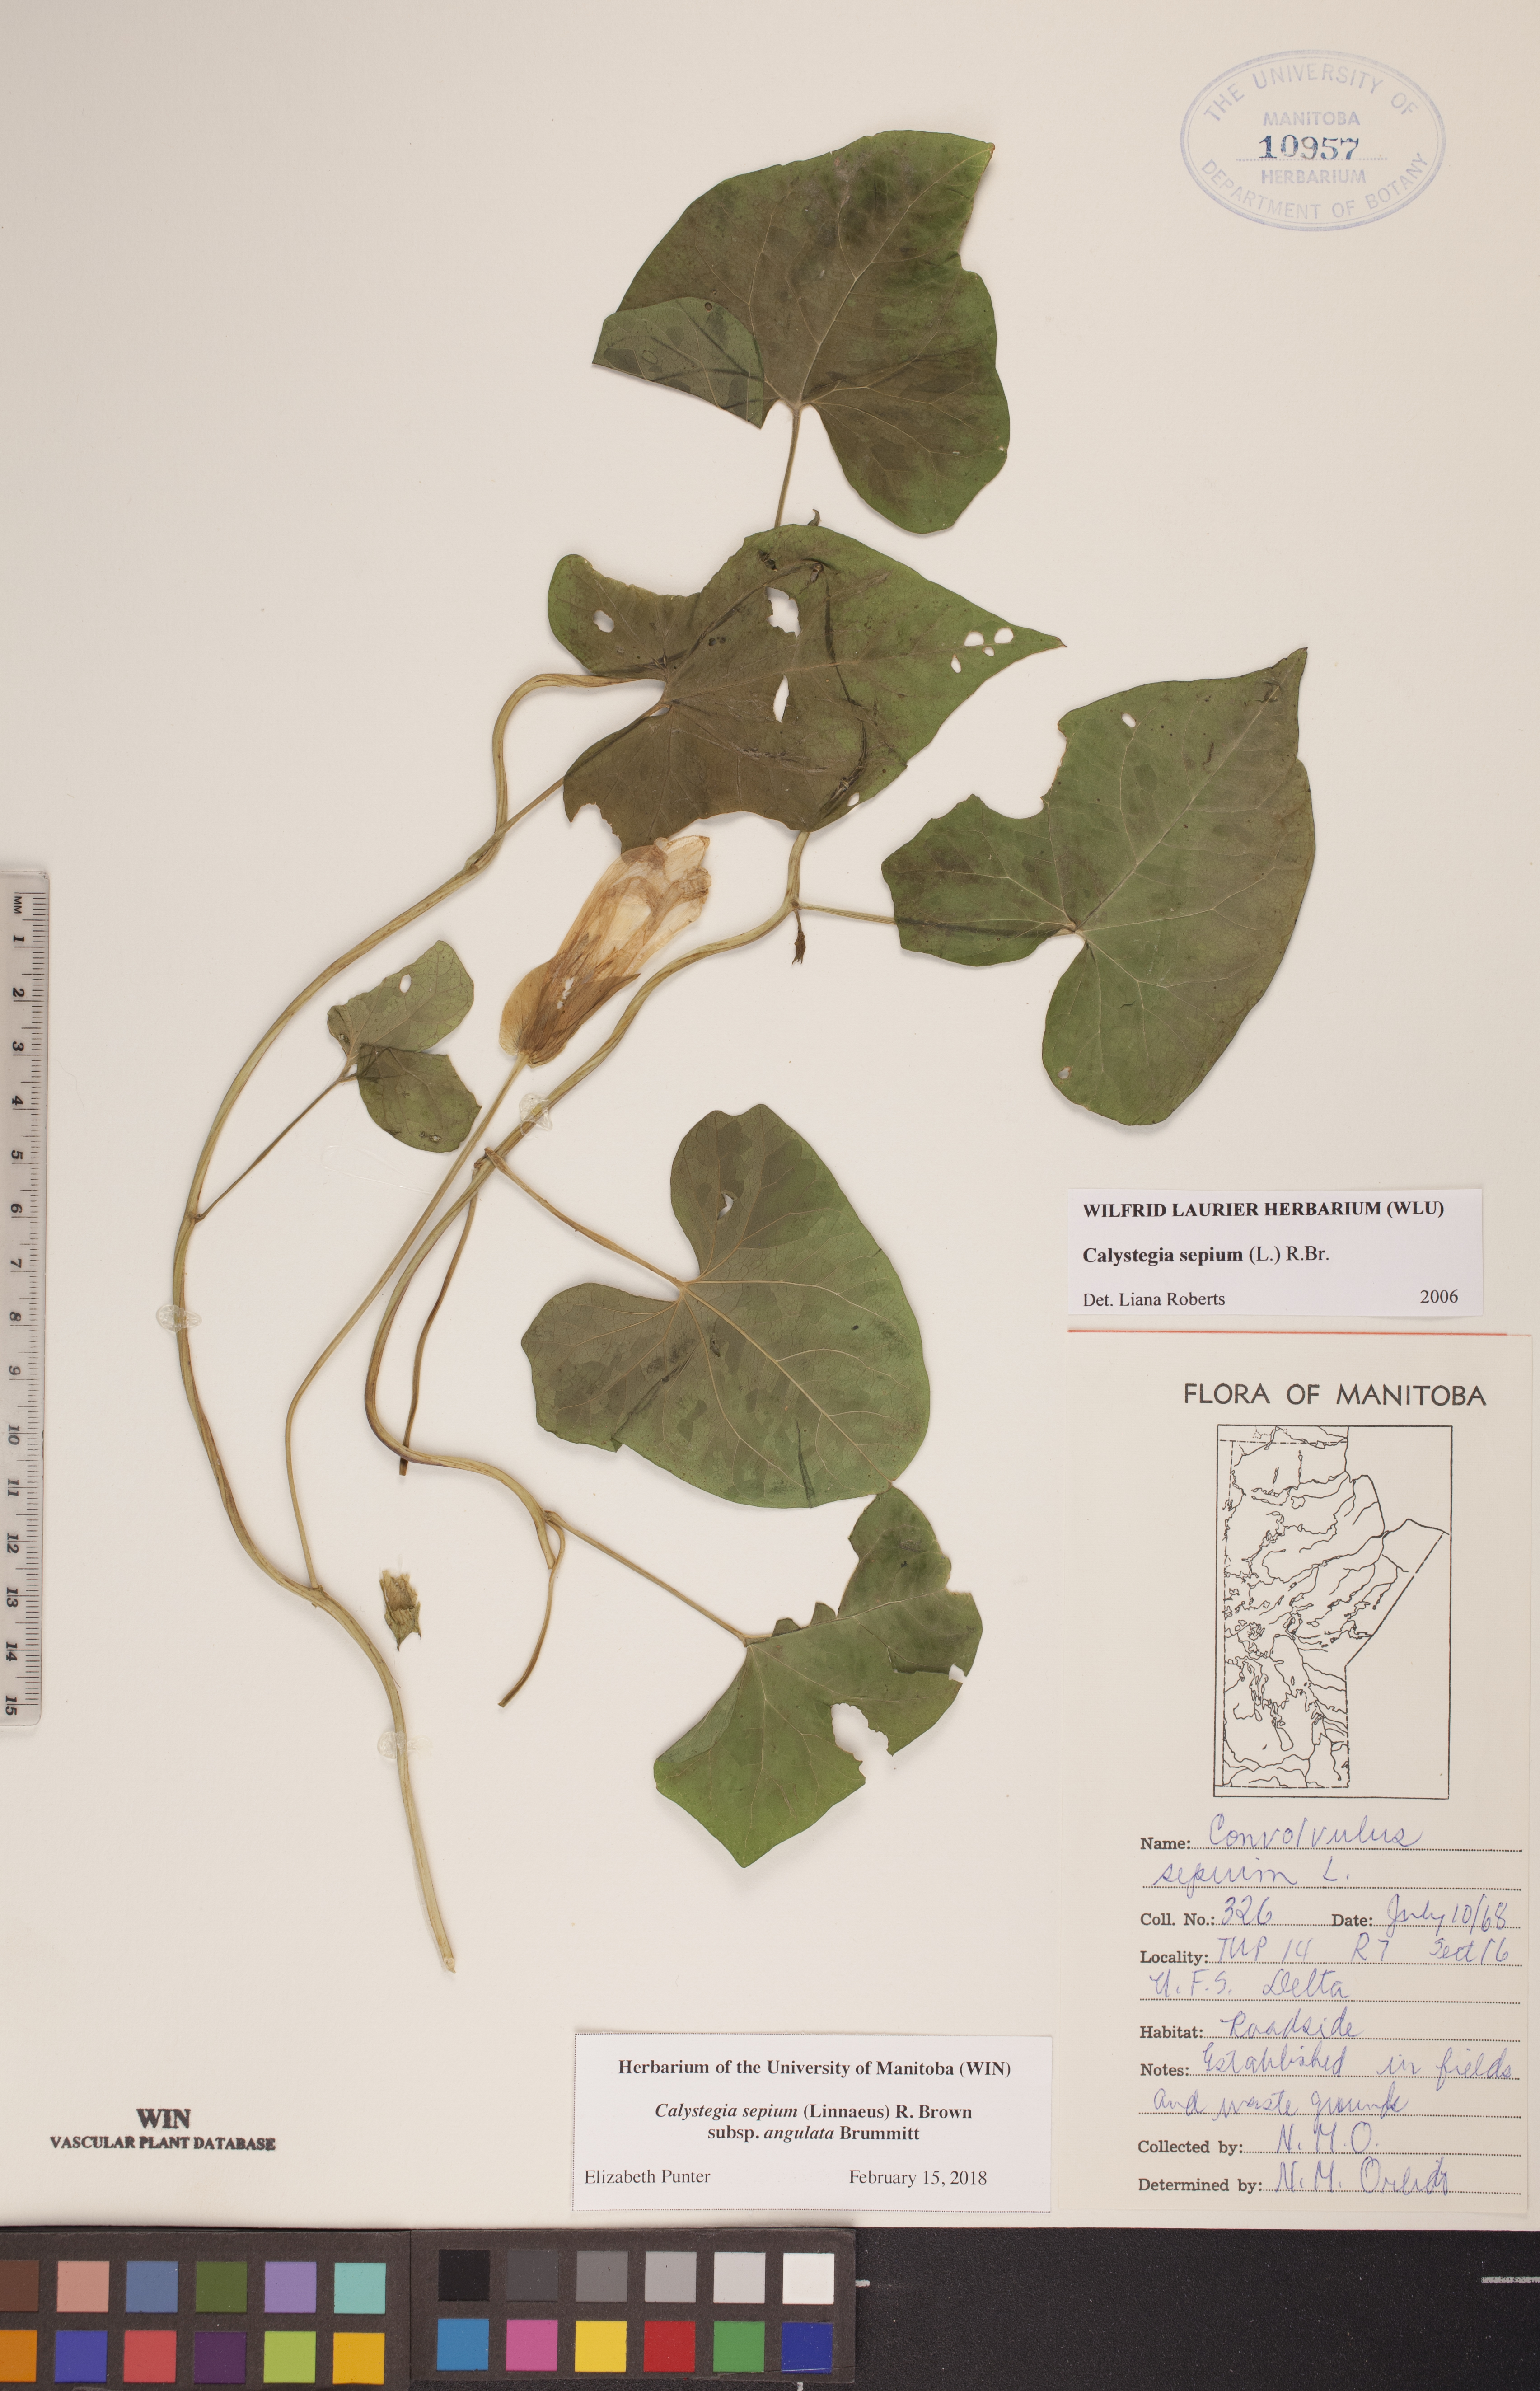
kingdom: Plantae
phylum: Tracheophyta
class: Magnoliopsida
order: Solanales
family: Convolvulaceae
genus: Calystegia
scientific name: Calystegia sepium
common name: Hedge bindweed
